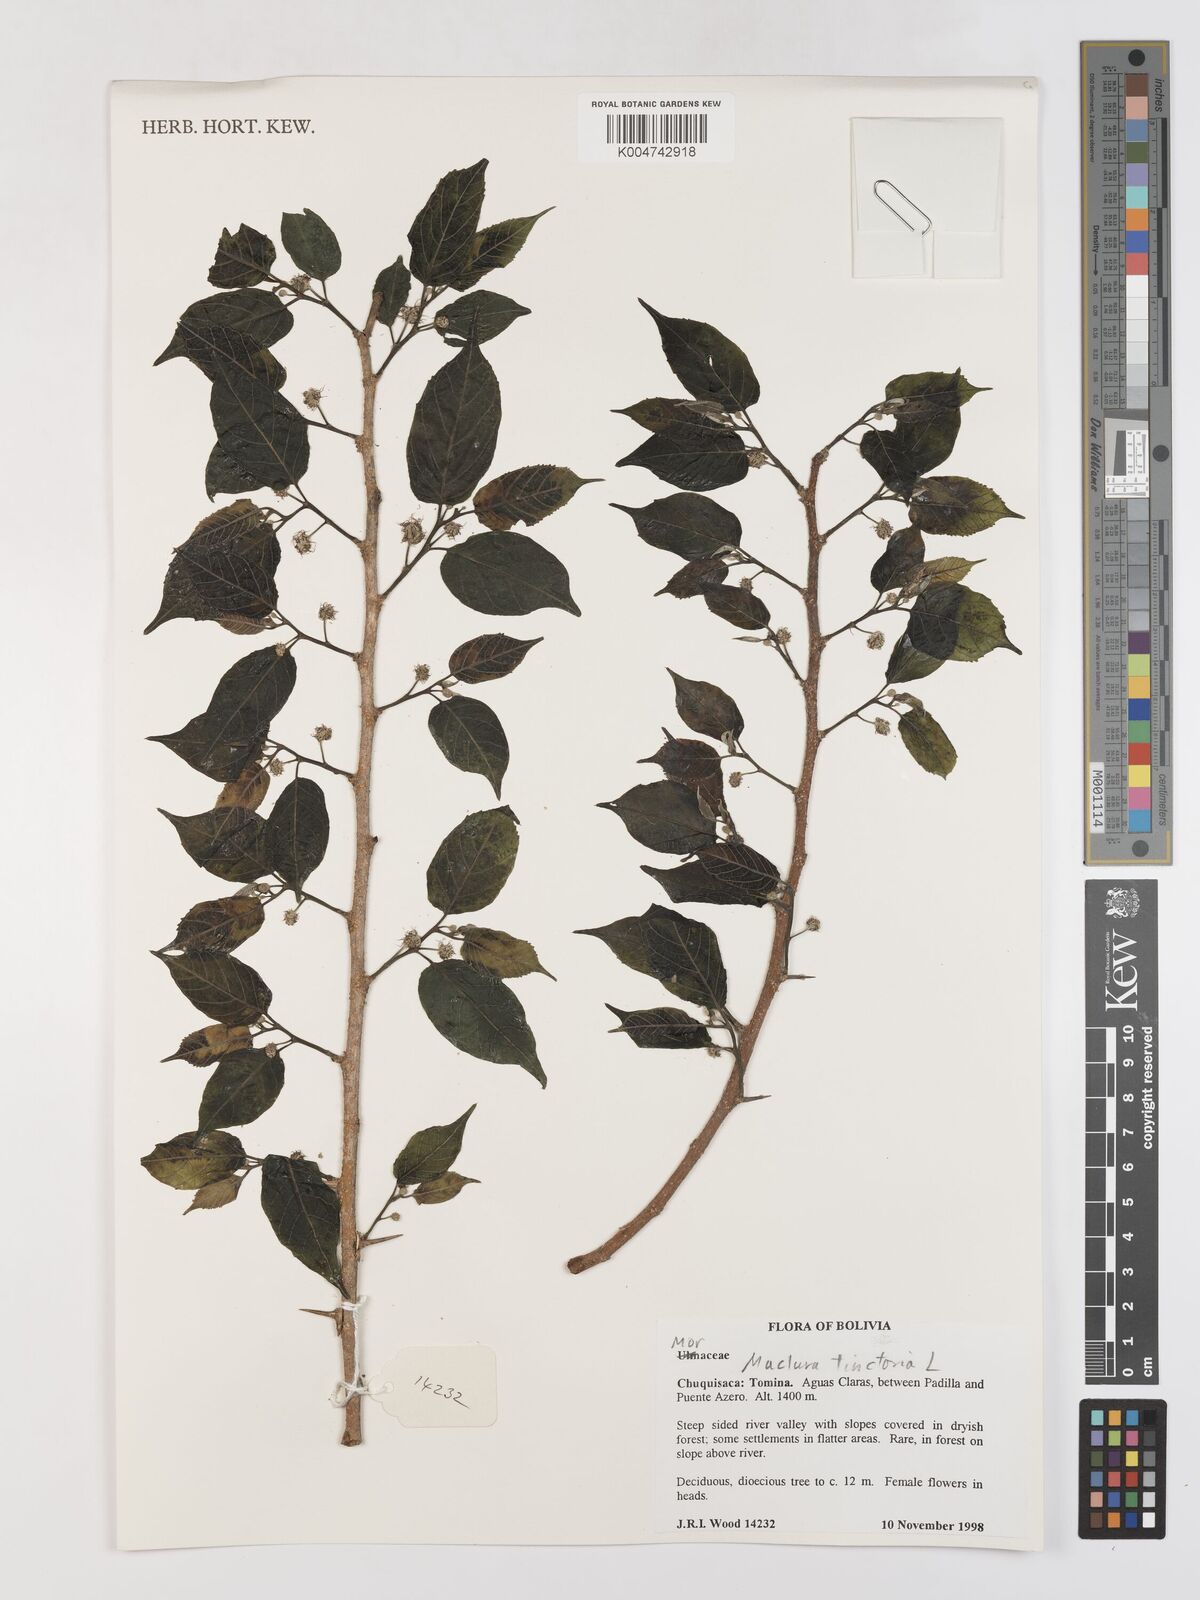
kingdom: Plantae
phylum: Tracheophyta
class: Magnoliopsida
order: Rosales
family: Moraceae
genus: Maclura
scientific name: Maclura tinctoria
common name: Old fustic
